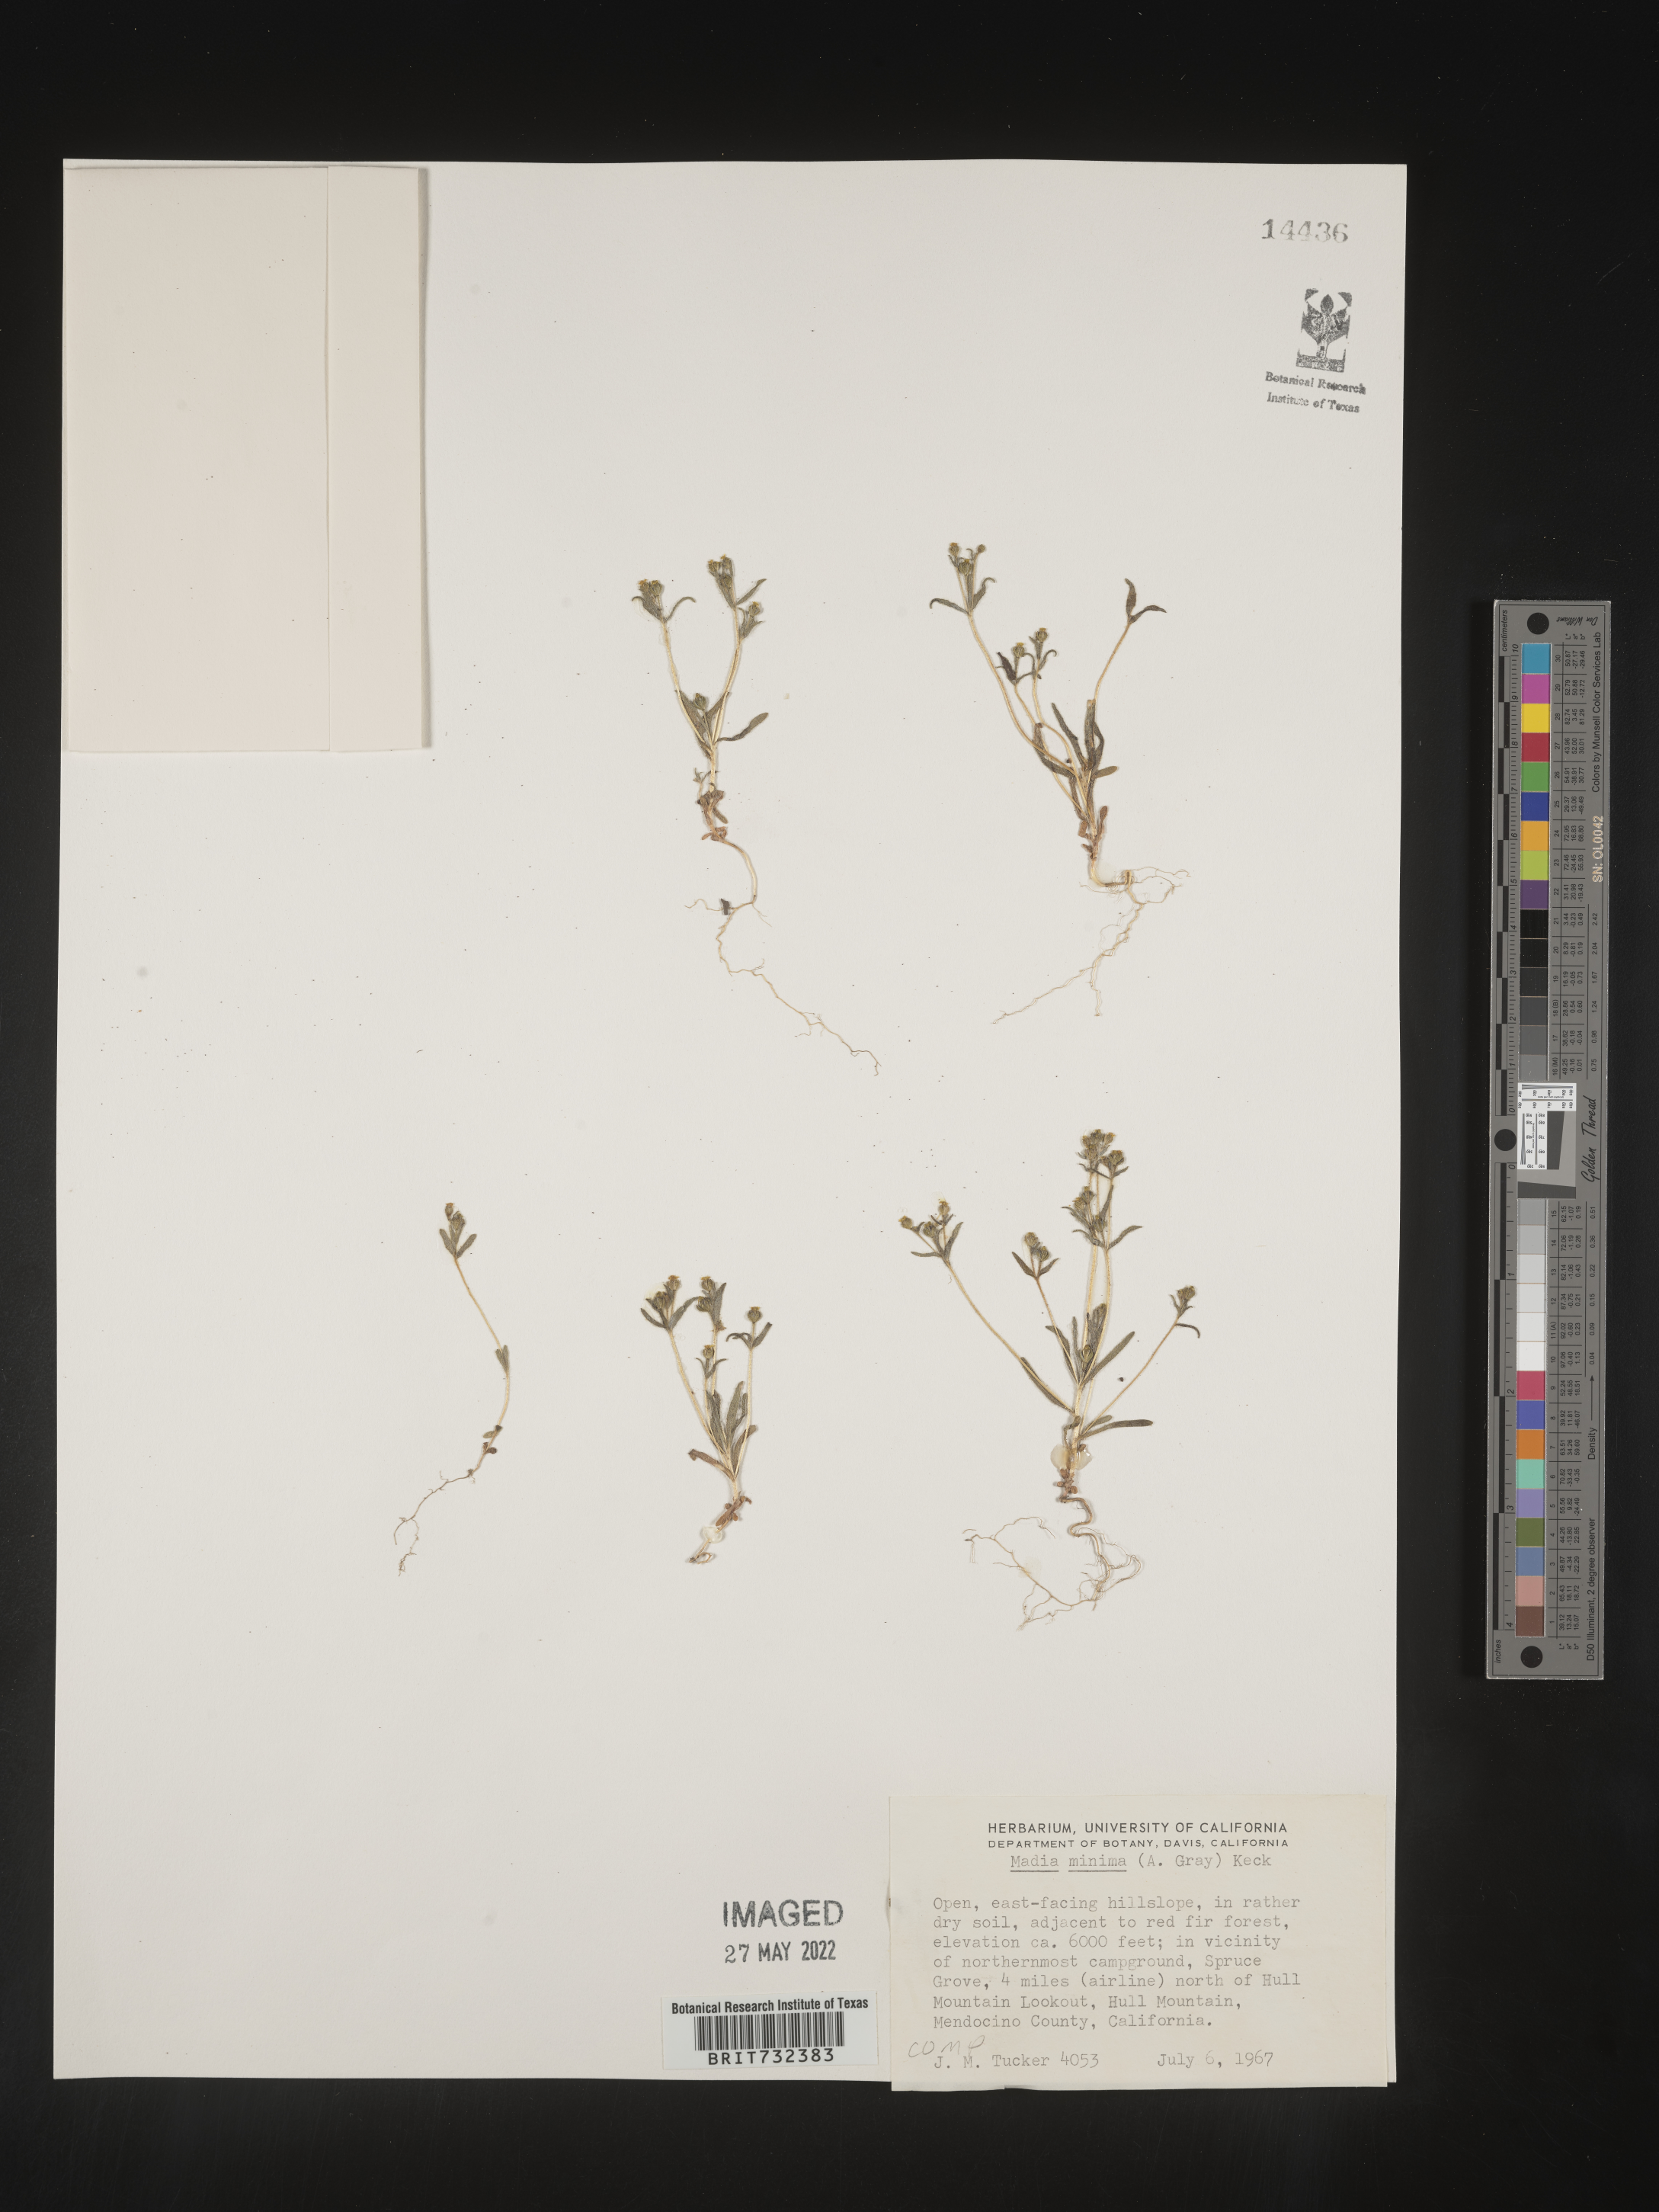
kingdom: Plantae
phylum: Tracheophyta
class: Magnoliopsida
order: Asterales
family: Asteraceae
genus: Madia
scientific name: Madia
